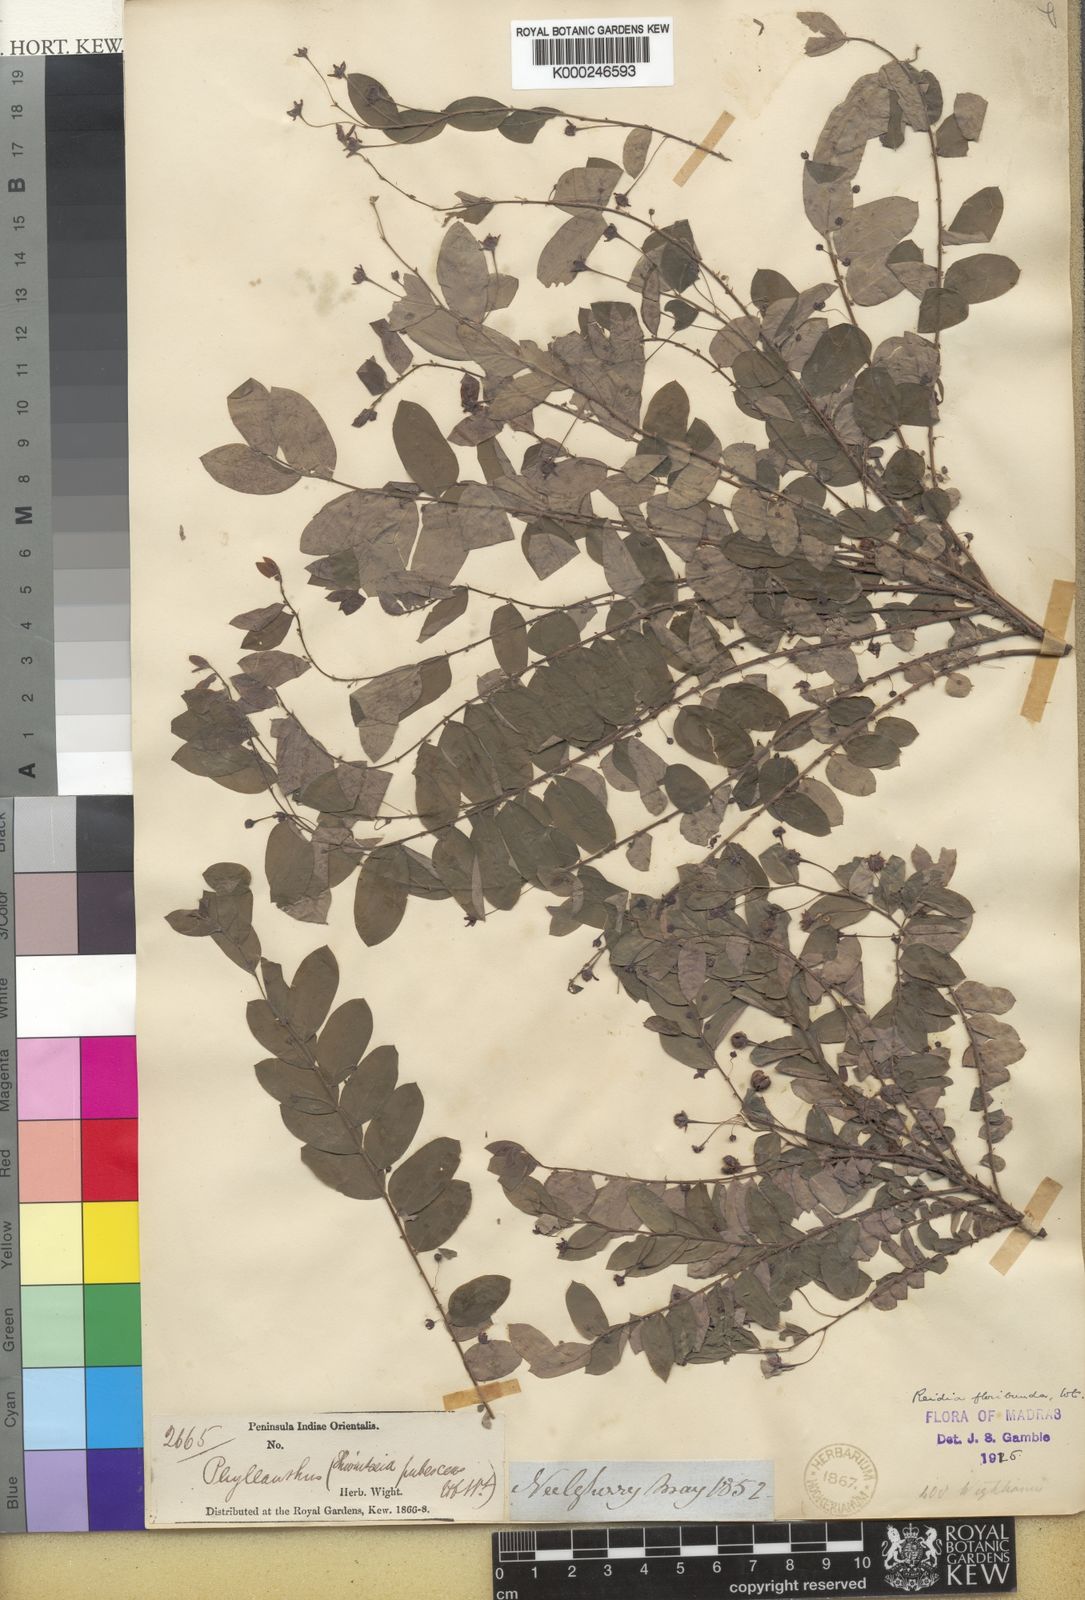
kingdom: Plantae
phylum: Tracheophyta
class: Magnoliopsida
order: Malpighiales
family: Phyllanthaceae
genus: Phyllanthus
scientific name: Phyllanthus
